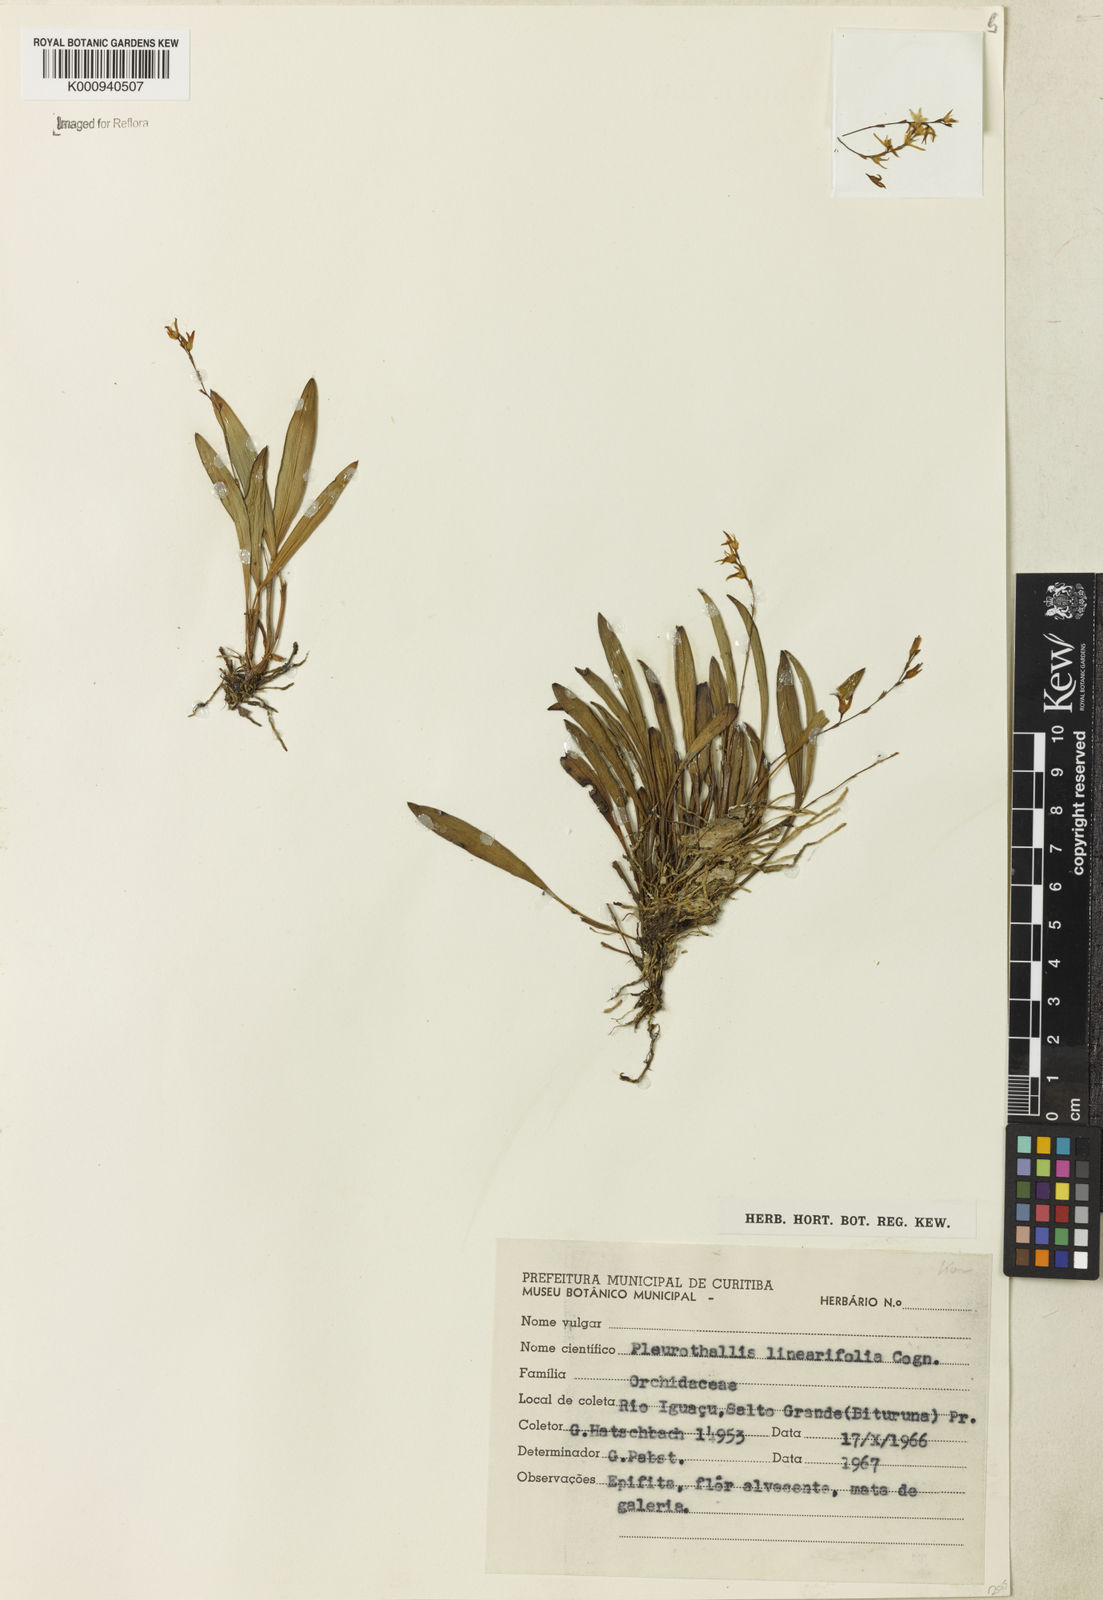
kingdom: Plantae
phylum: Tracheophyta
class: Liliopsida
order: Asparagales
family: Orchidaceae
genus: Anathallis
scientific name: Anathallis linearifolia
